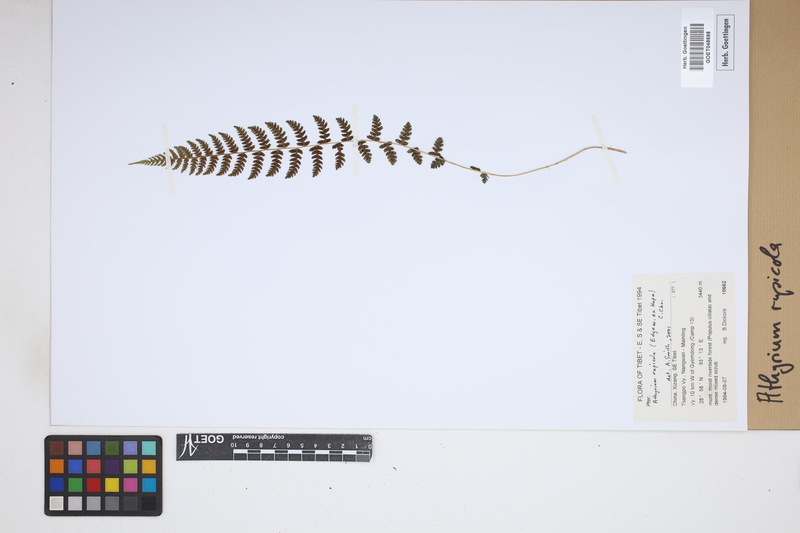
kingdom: Plantae
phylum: Tracheophyta
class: Polypodiopsida
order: Polypodiales
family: Athyriaceae
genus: Athyrium
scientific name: Athyrium rupicola
